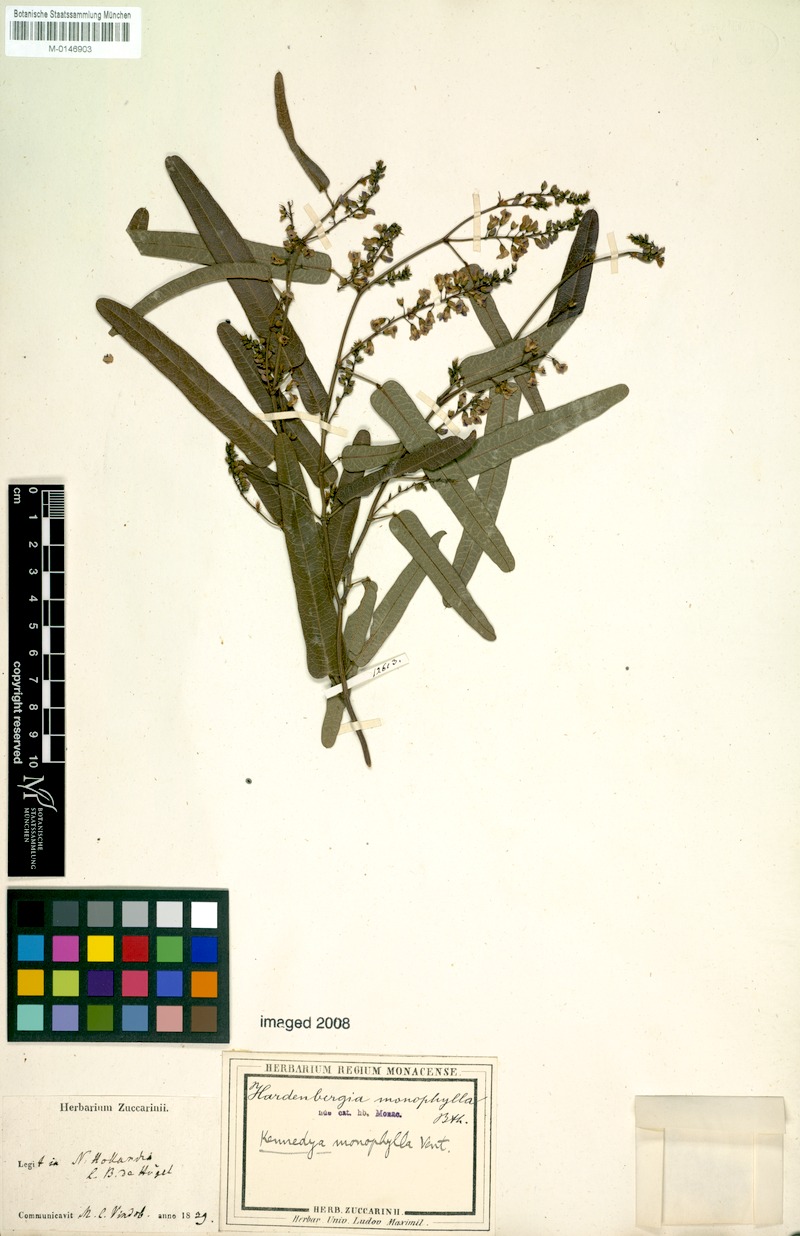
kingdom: Plantae
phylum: Tracheophyta
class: Magnoliopsida
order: Fabales
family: Fabaceae
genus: Hardenbergia
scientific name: Hardenbergia violacea
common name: Coral-pea
